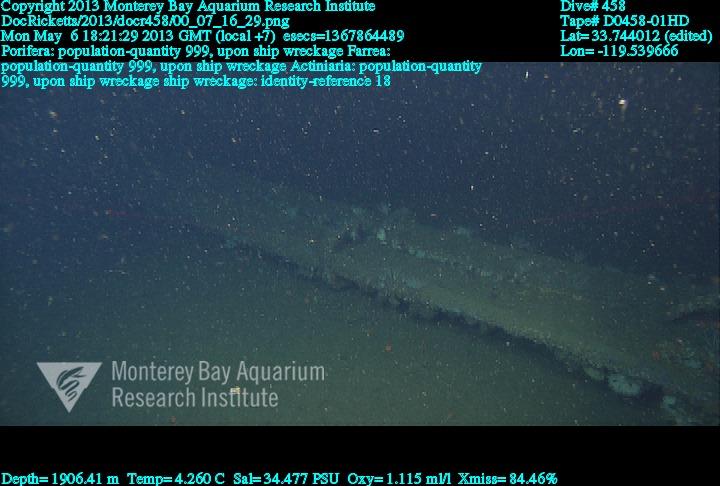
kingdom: Animalia
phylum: Porifera
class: Hexactinellida
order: Sceptrulophora
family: Farreidae
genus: Farrea
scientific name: Farrea
